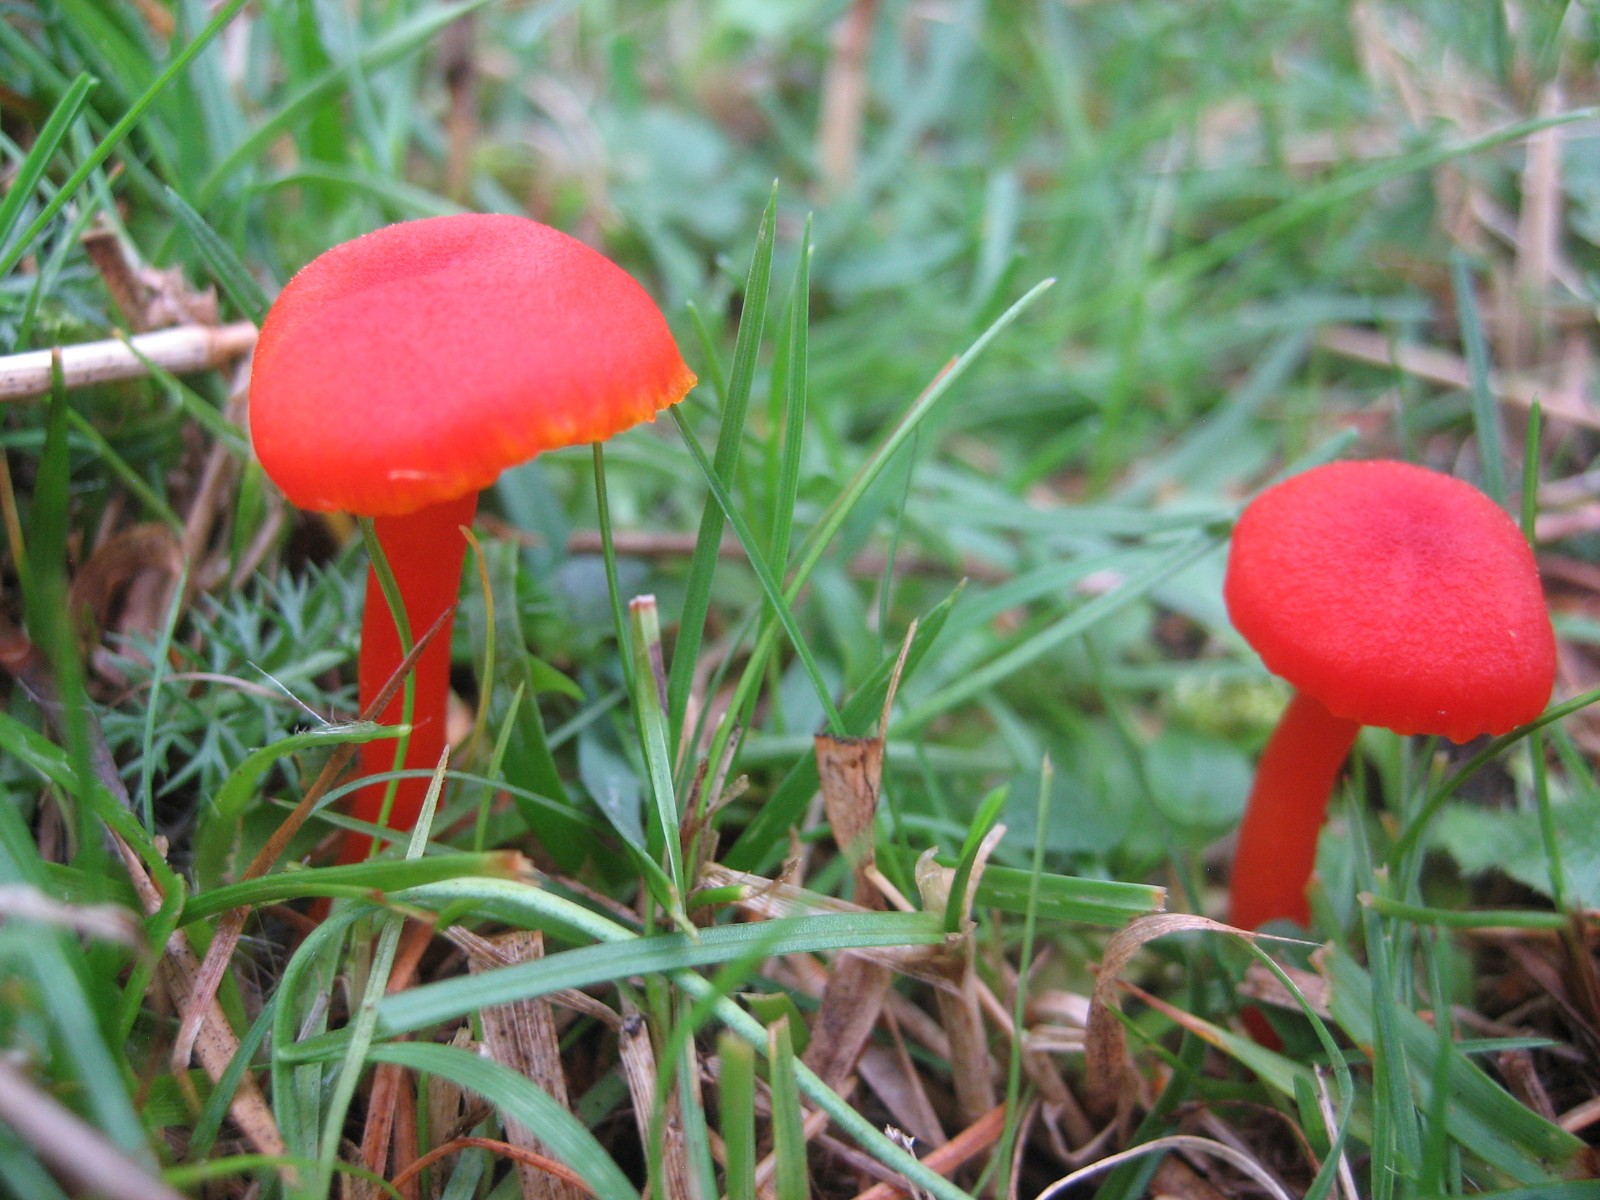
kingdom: Fungi
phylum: Basidiomycota
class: Agaricomycetes
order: Agaricales
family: Hygrophoraceae
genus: Hygrocybe
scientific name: Hygrocybe miniata
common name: mønje-vokshat
